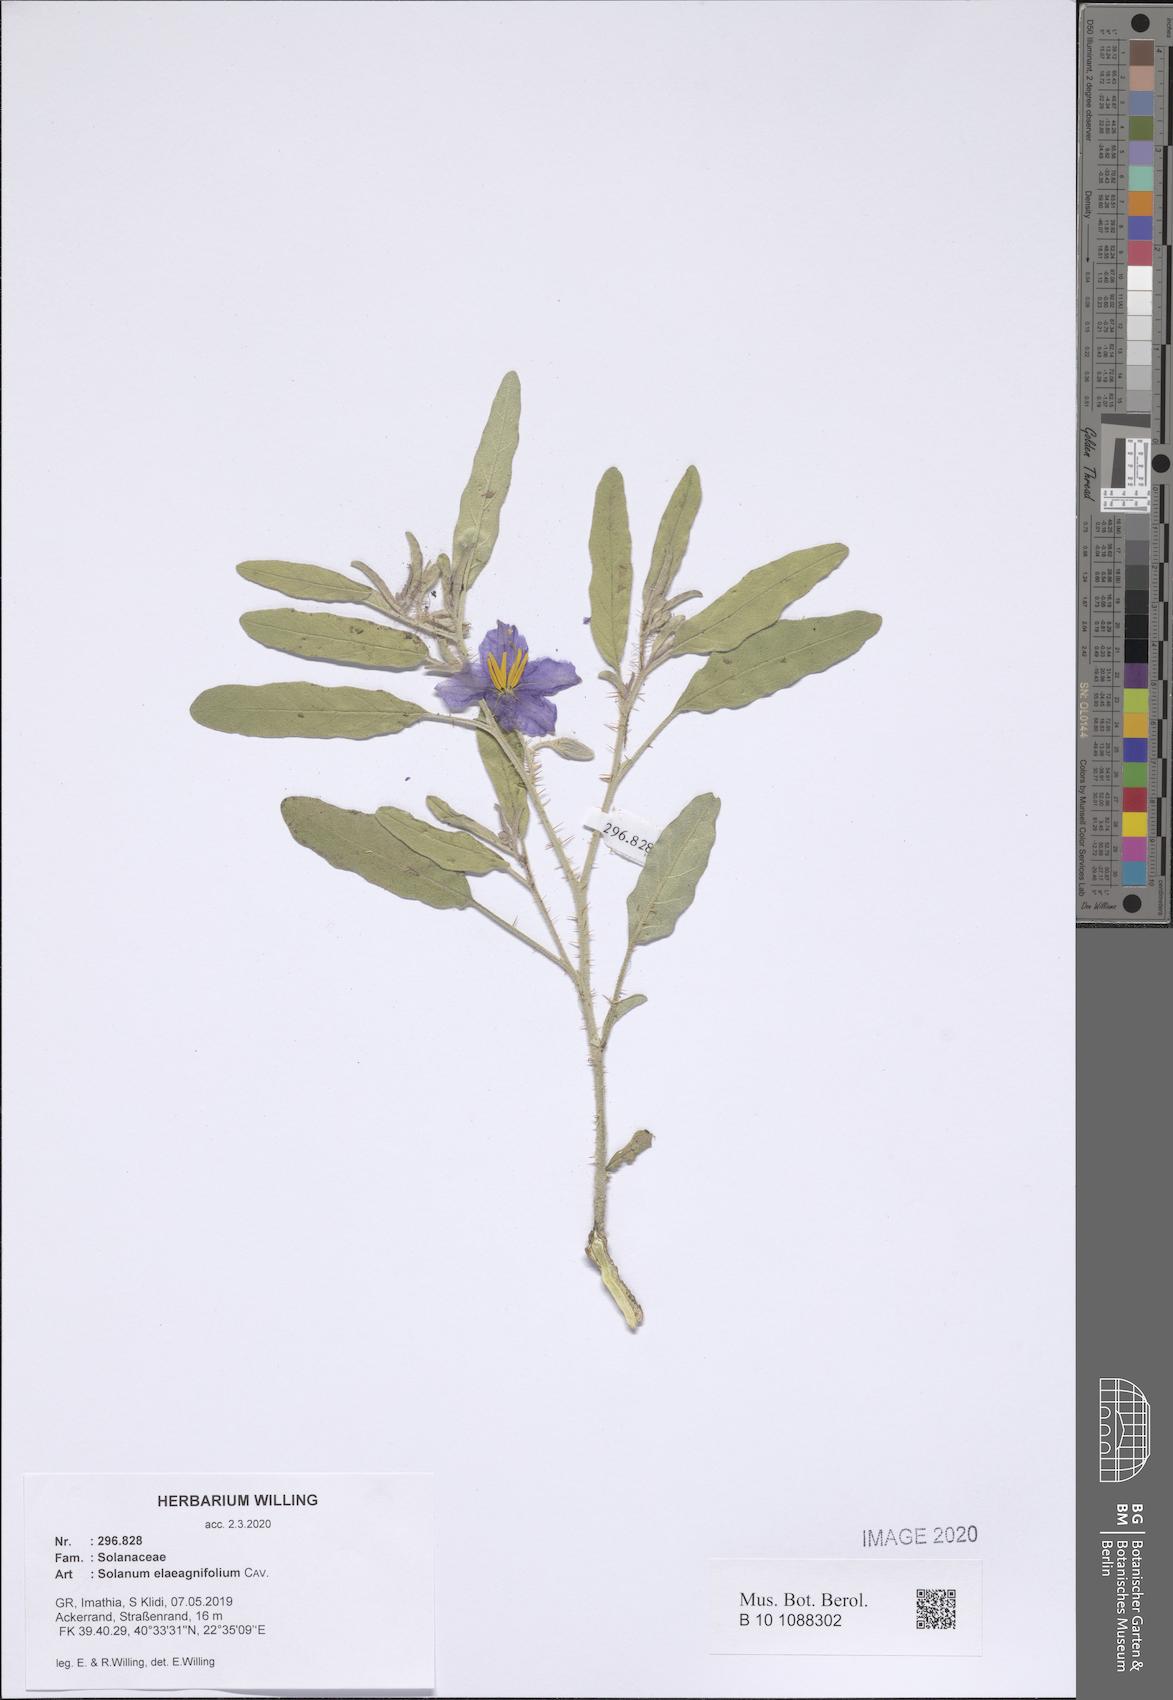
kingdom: Plantae
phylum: Tracheophyta
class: Magnoliopsida
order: Solanales
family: Solanaceae
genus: Solanum
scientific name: Solanum elaeagnifolium
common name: Silverleaf nightshade
